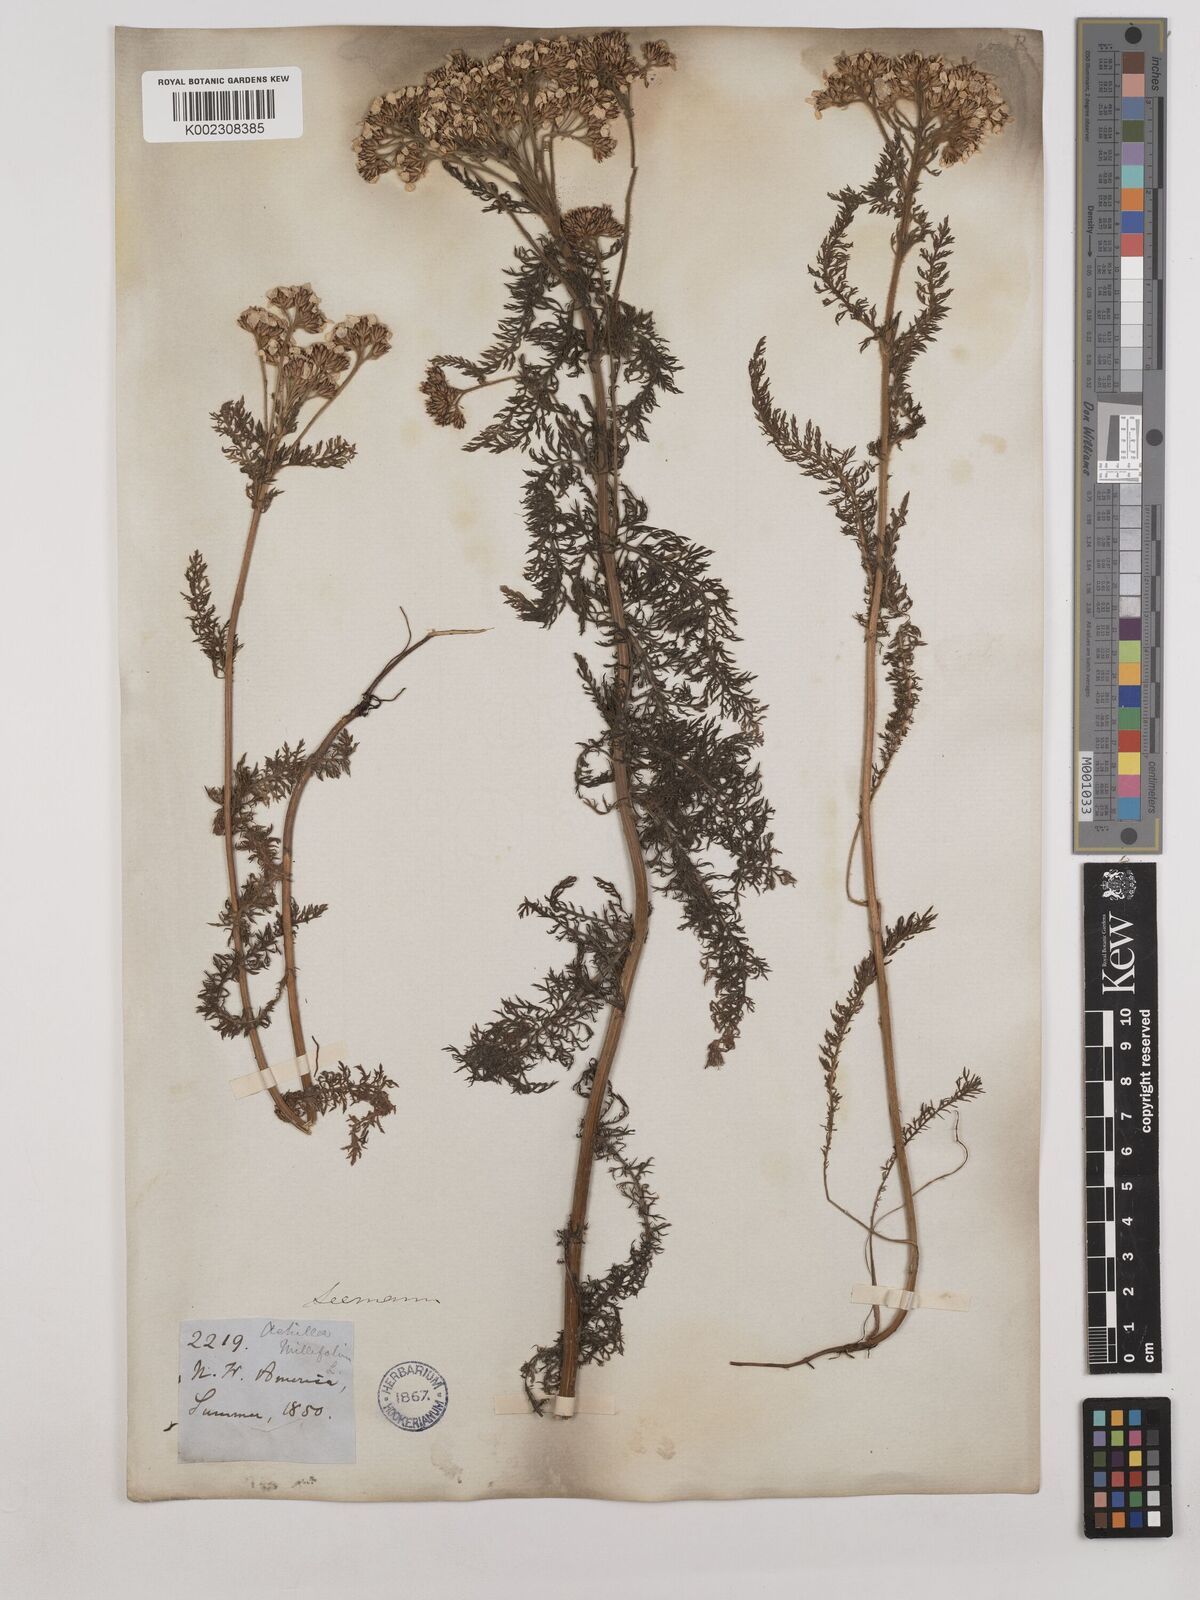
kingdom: Plantae
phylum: Tracheophyta
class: Magnoliopsida
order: Asterales
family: Asteraceae
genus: Achillea
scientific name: Achillea millefolium
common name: Yarrow
